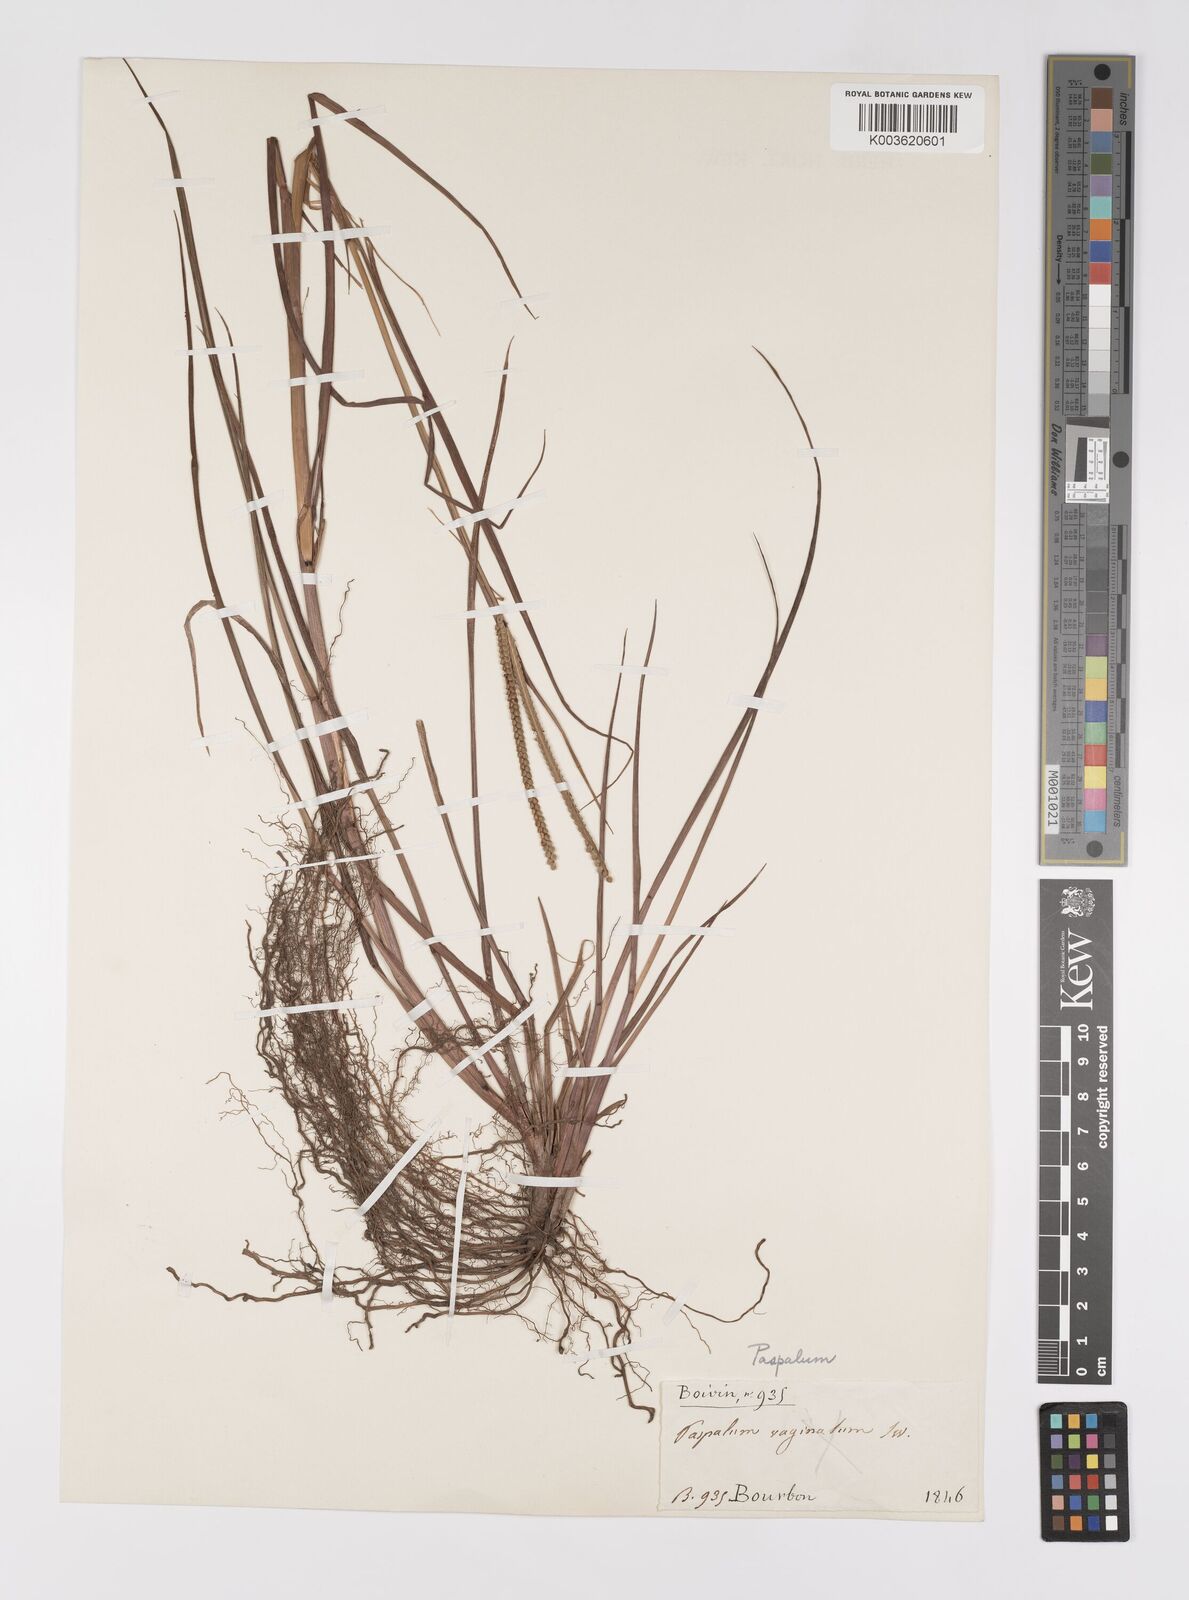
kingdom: Plantae
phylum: Tracheophyta
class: Liliopsida
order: Poales
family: Poaceae
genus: Paspalum
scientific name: Paspalum scrobiculatum
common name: Kodo millet
